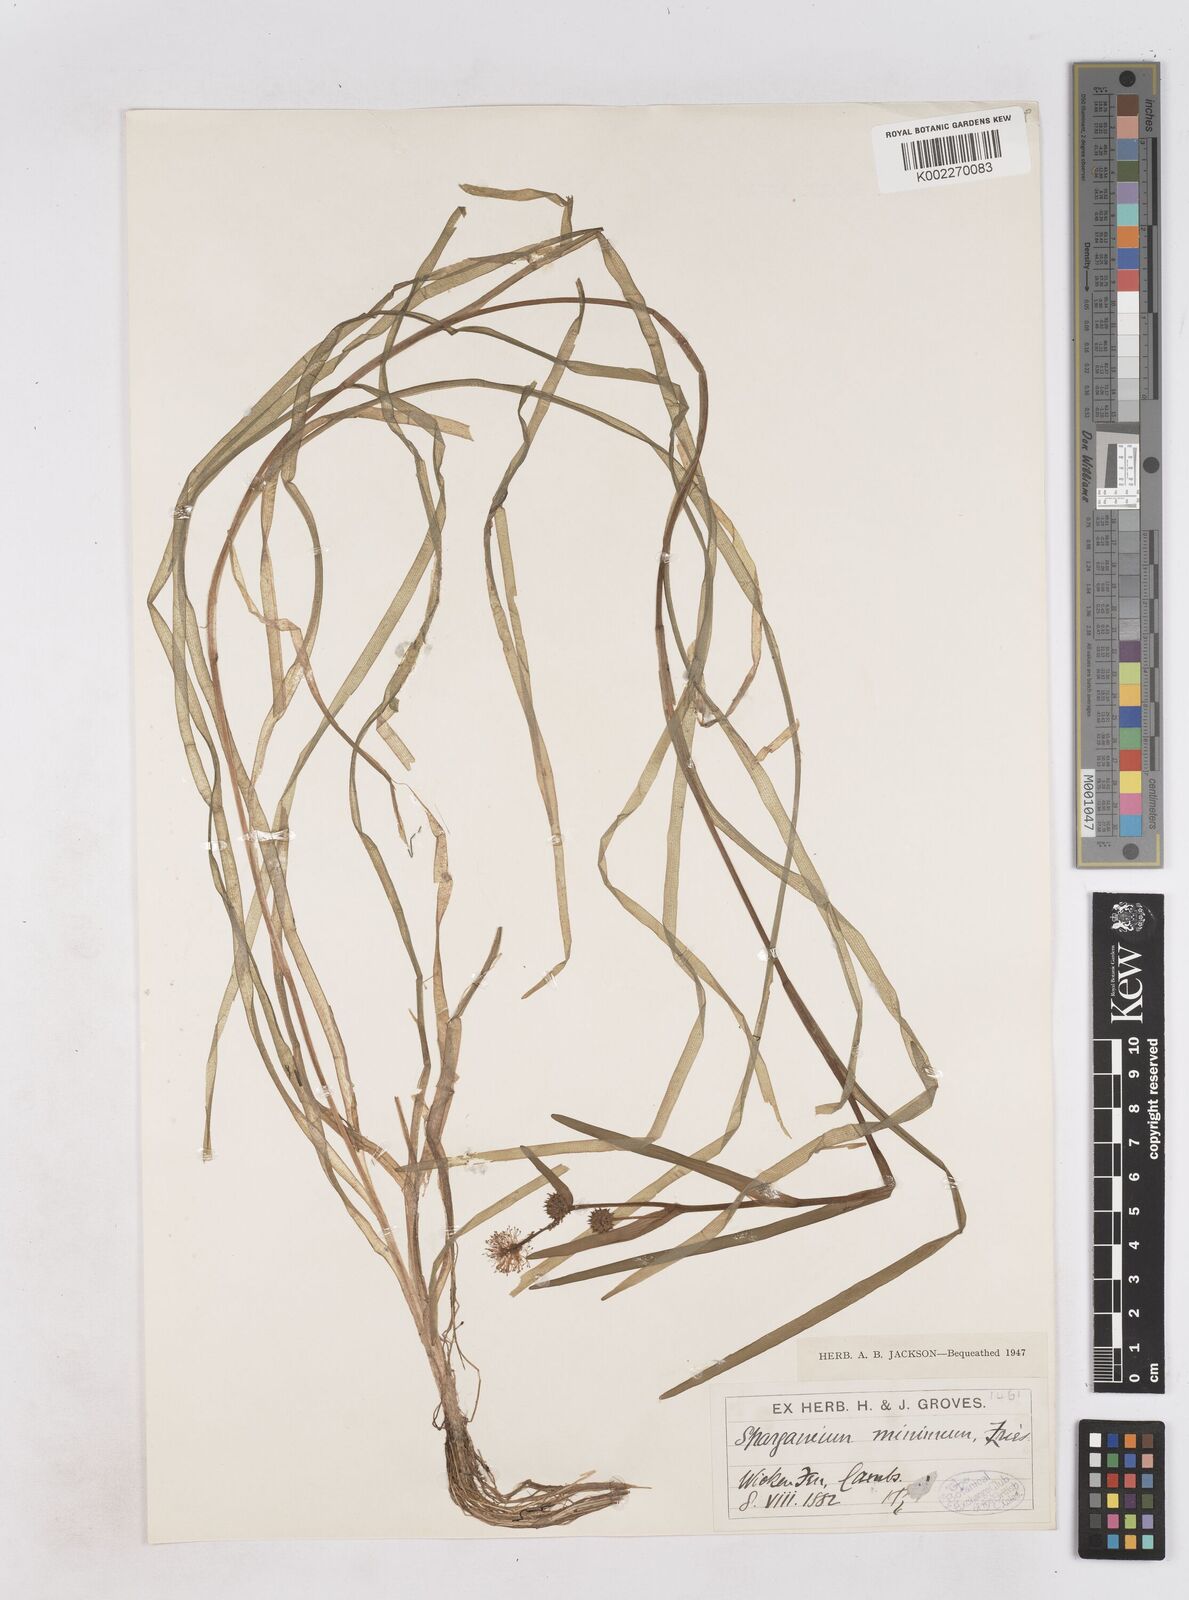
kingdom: Plantae
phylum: Tracheophyta
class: Liliopsida
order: Poales
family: Typhaceae
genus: Sparganium
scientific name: Sparganium natans
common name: Least bur-reed
